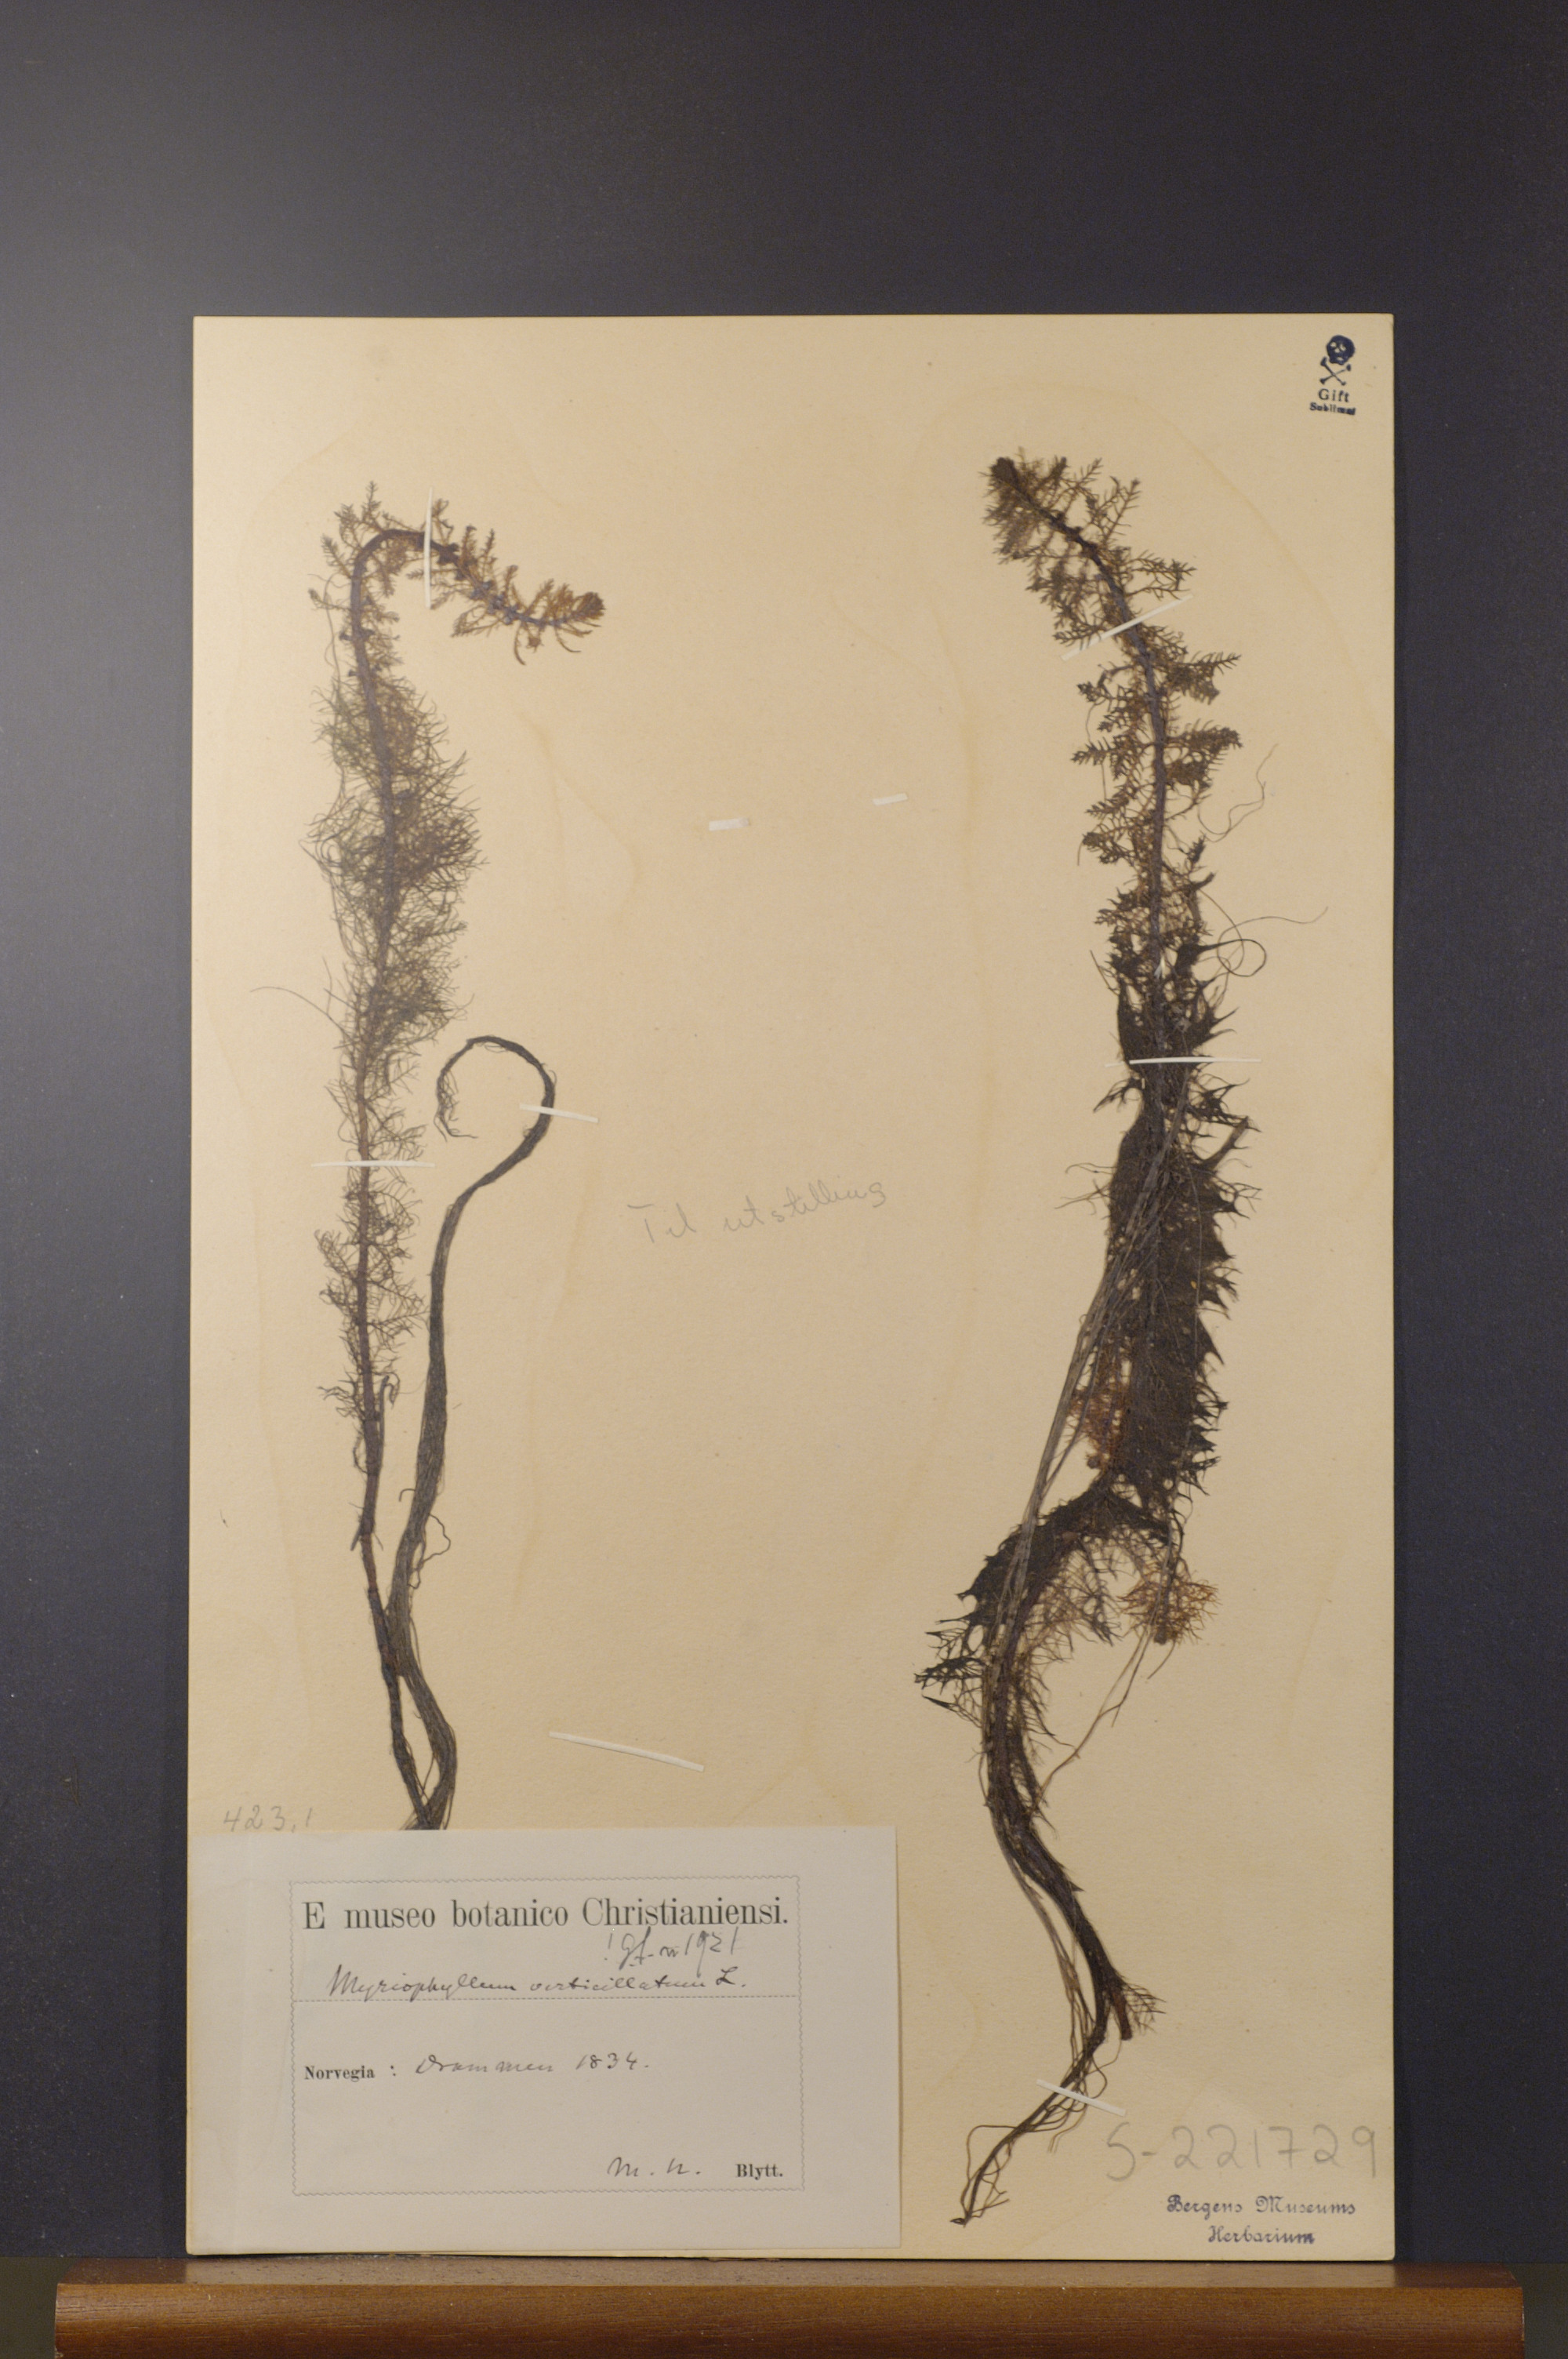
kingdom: Plantae
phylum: Tracheophyta
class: Magnoliopsida
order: Saxifragales
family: Haloragaceae
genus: Myriophyllum
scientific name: Myriophyllum verticillatum
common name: Whorled water-milfoil
